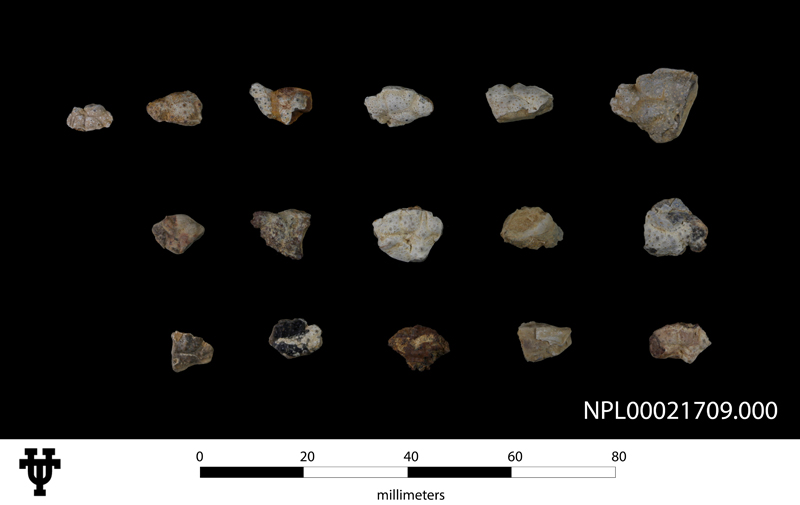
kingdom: Animalia
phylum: Arthropoda
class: Malacostraca
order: Decapoda
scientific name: Decapoda
